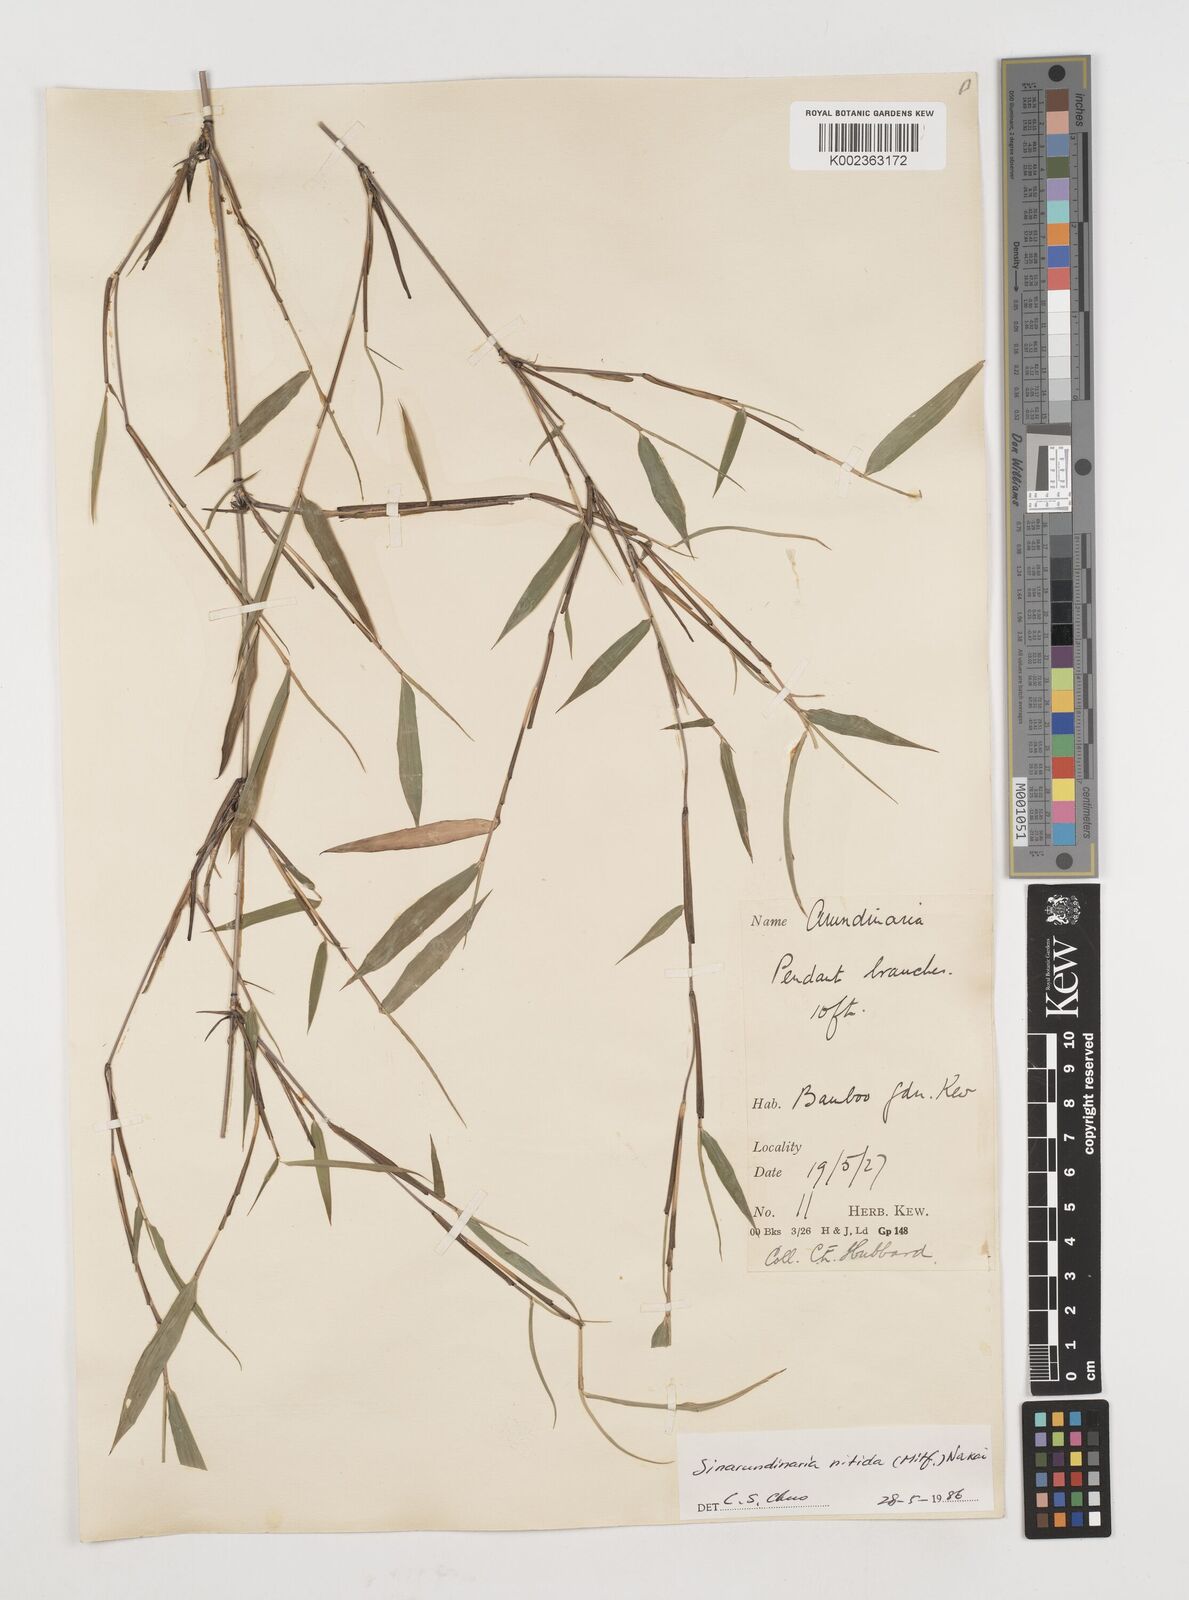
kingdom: Plantae
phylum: Tracheophyta
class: Liliopsida
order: Poales
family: Poaceae
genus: Fargesia
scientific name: Fargesia nitida ex
